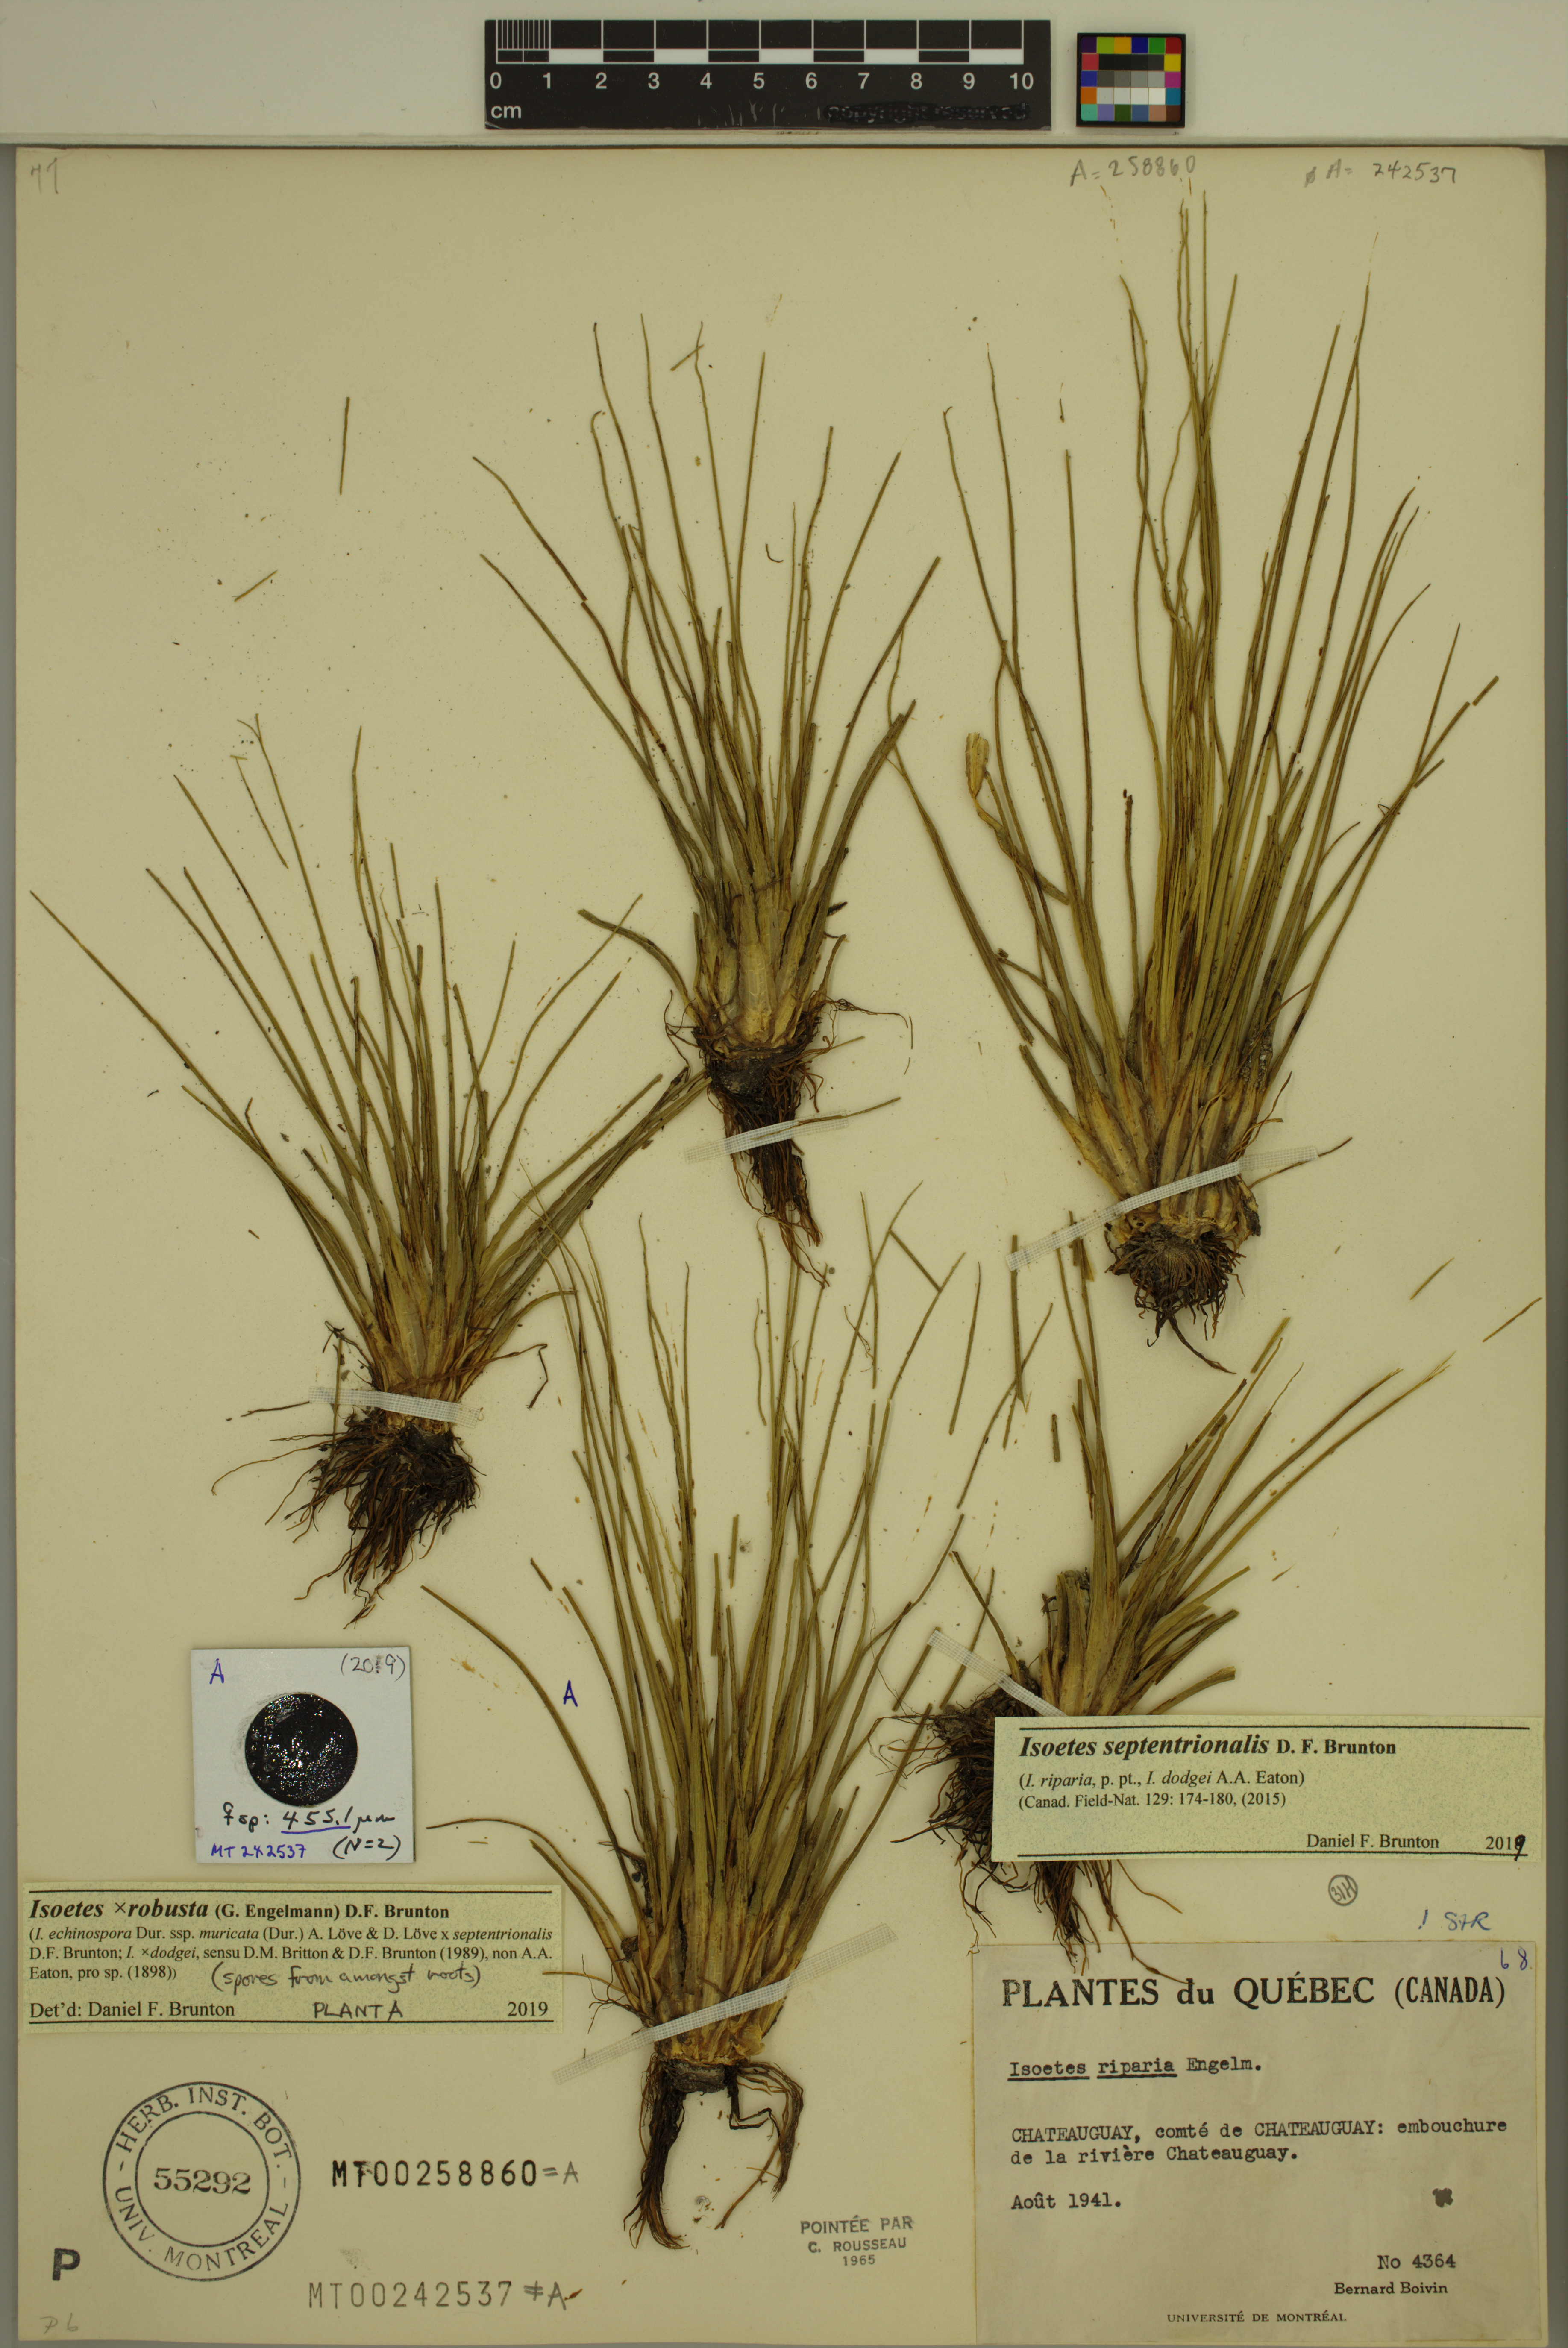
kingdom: Plantae
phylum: Tracheophyta
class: Lycopodiopsida
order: Isoetales
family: Isoetaceae
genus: Isoetes
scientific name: Isoetes septentrionalis
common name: Northern quillwort
